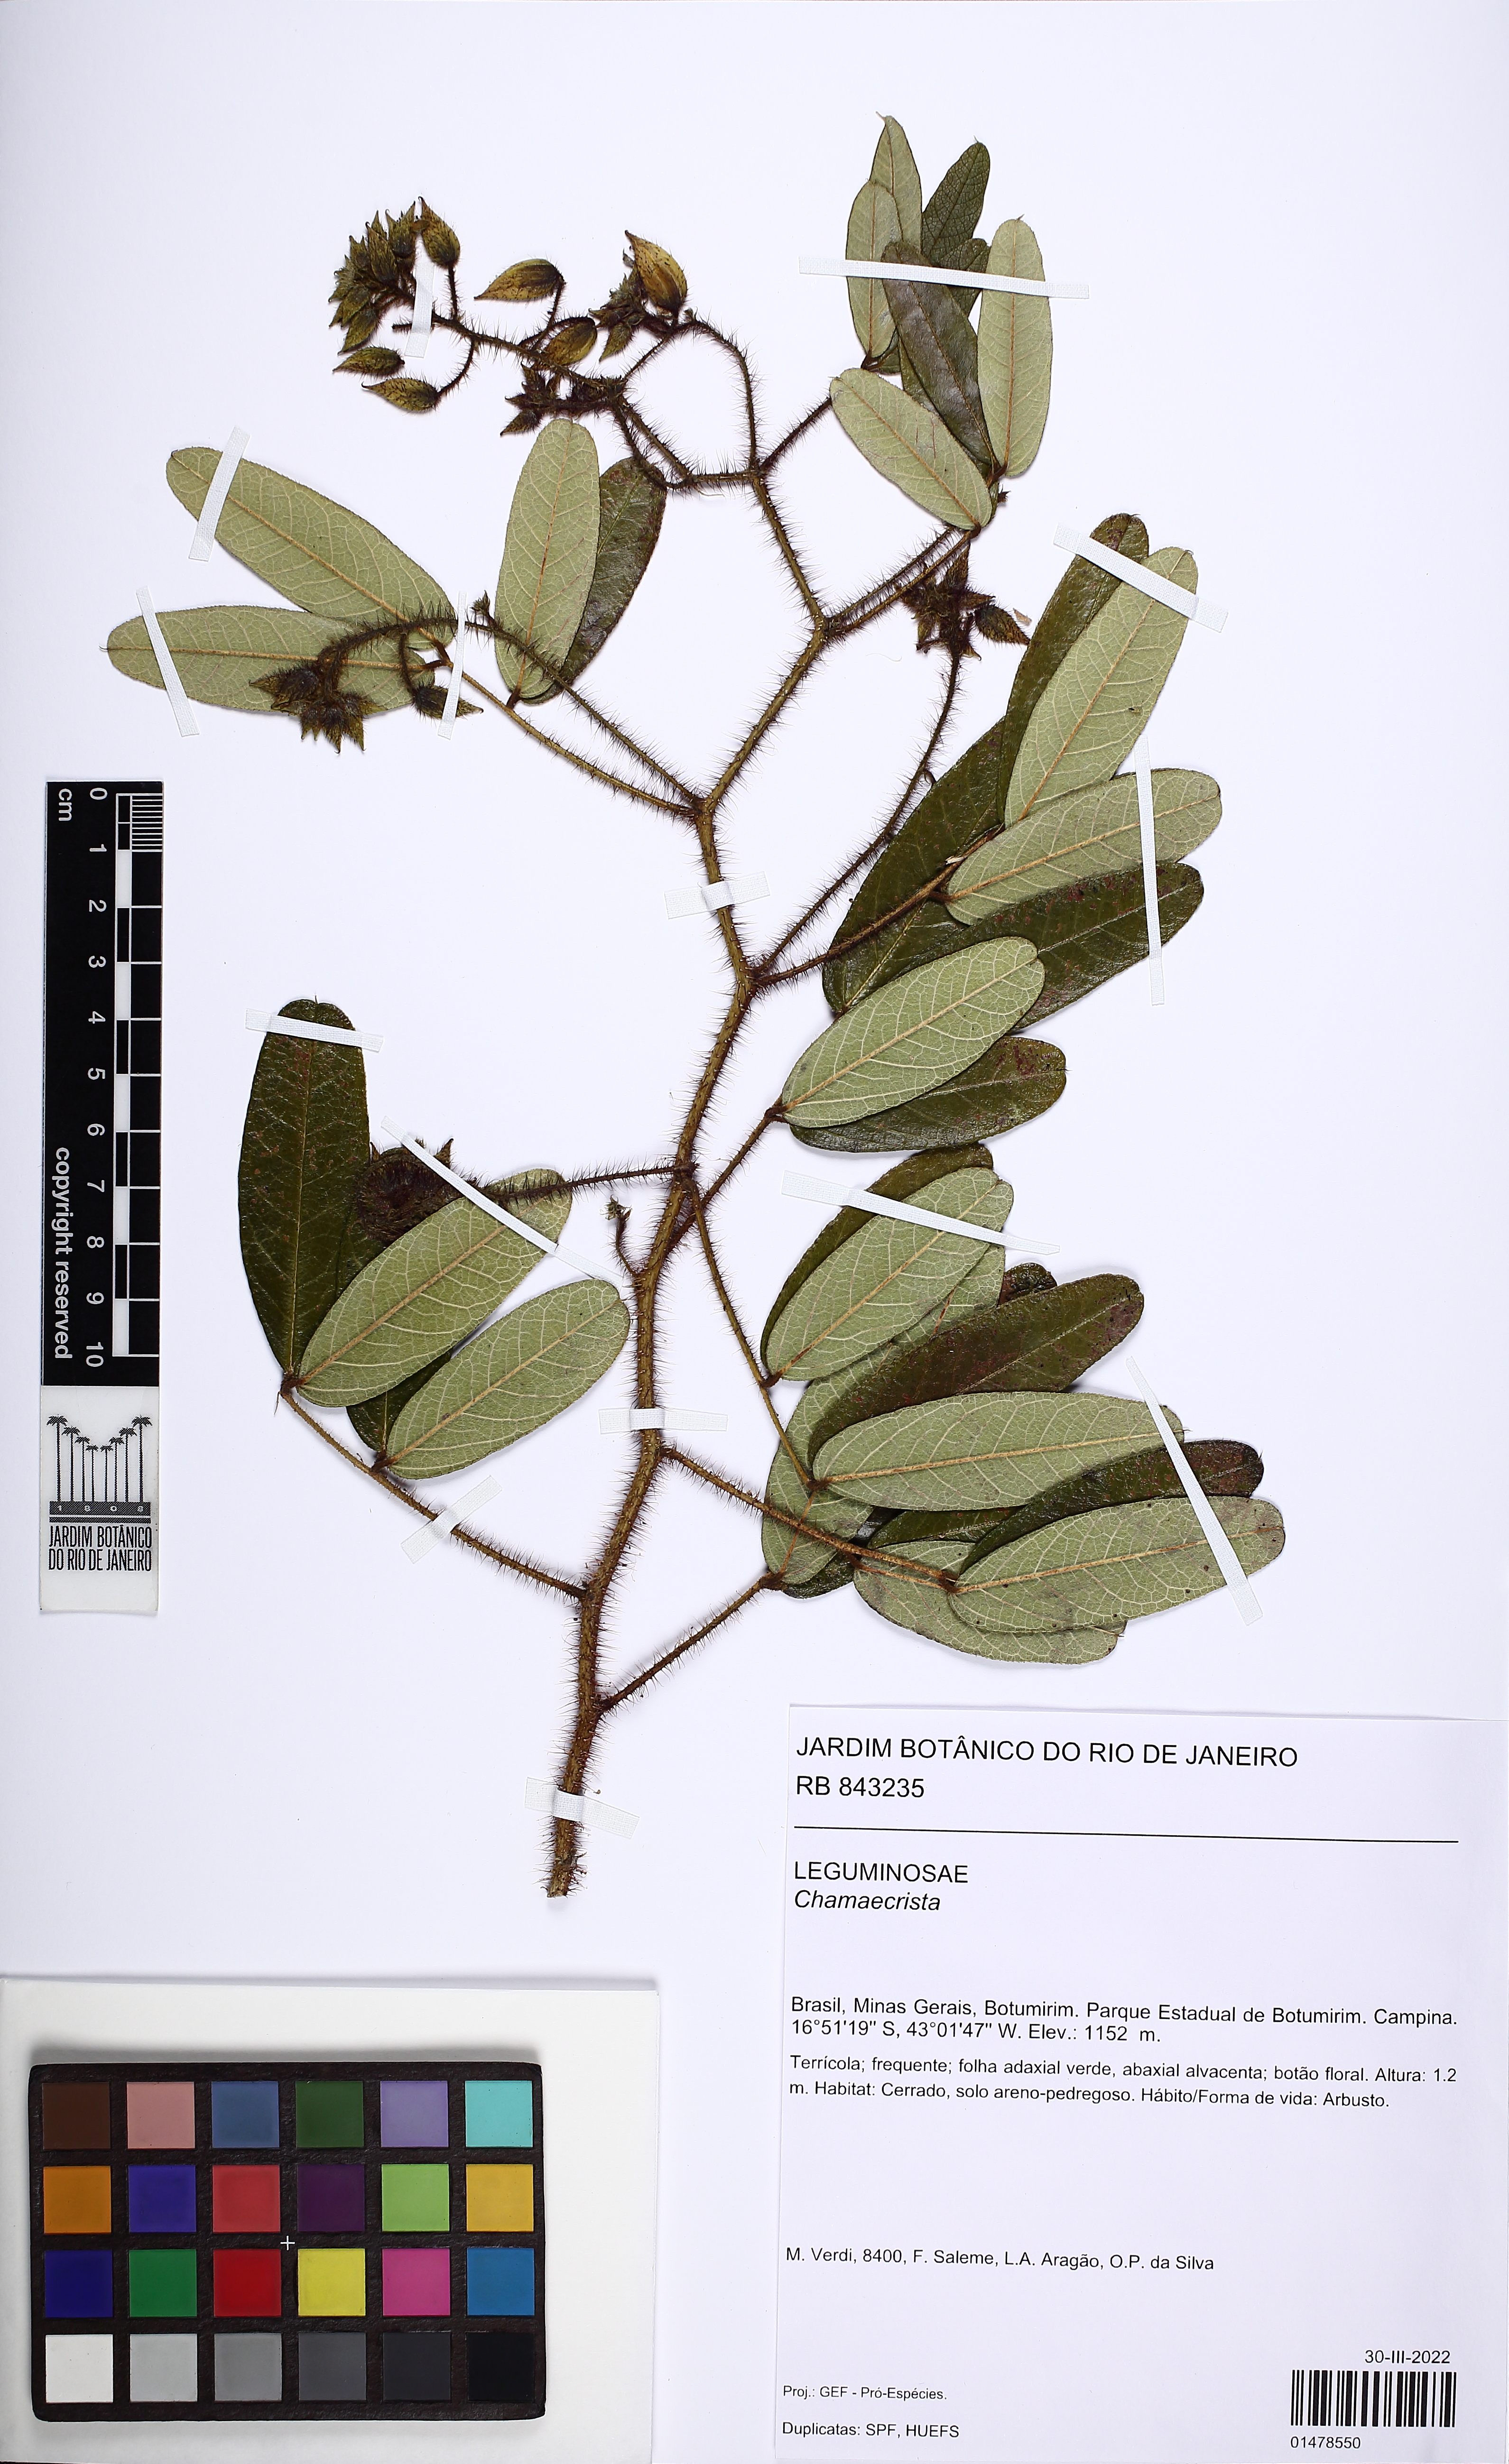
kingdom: Plantae
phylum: Tracheophyta
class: Magnoliopsida
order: Fabales
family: Fabaceae
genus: Chamaecrista
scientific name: Chamaecrista forzzae
